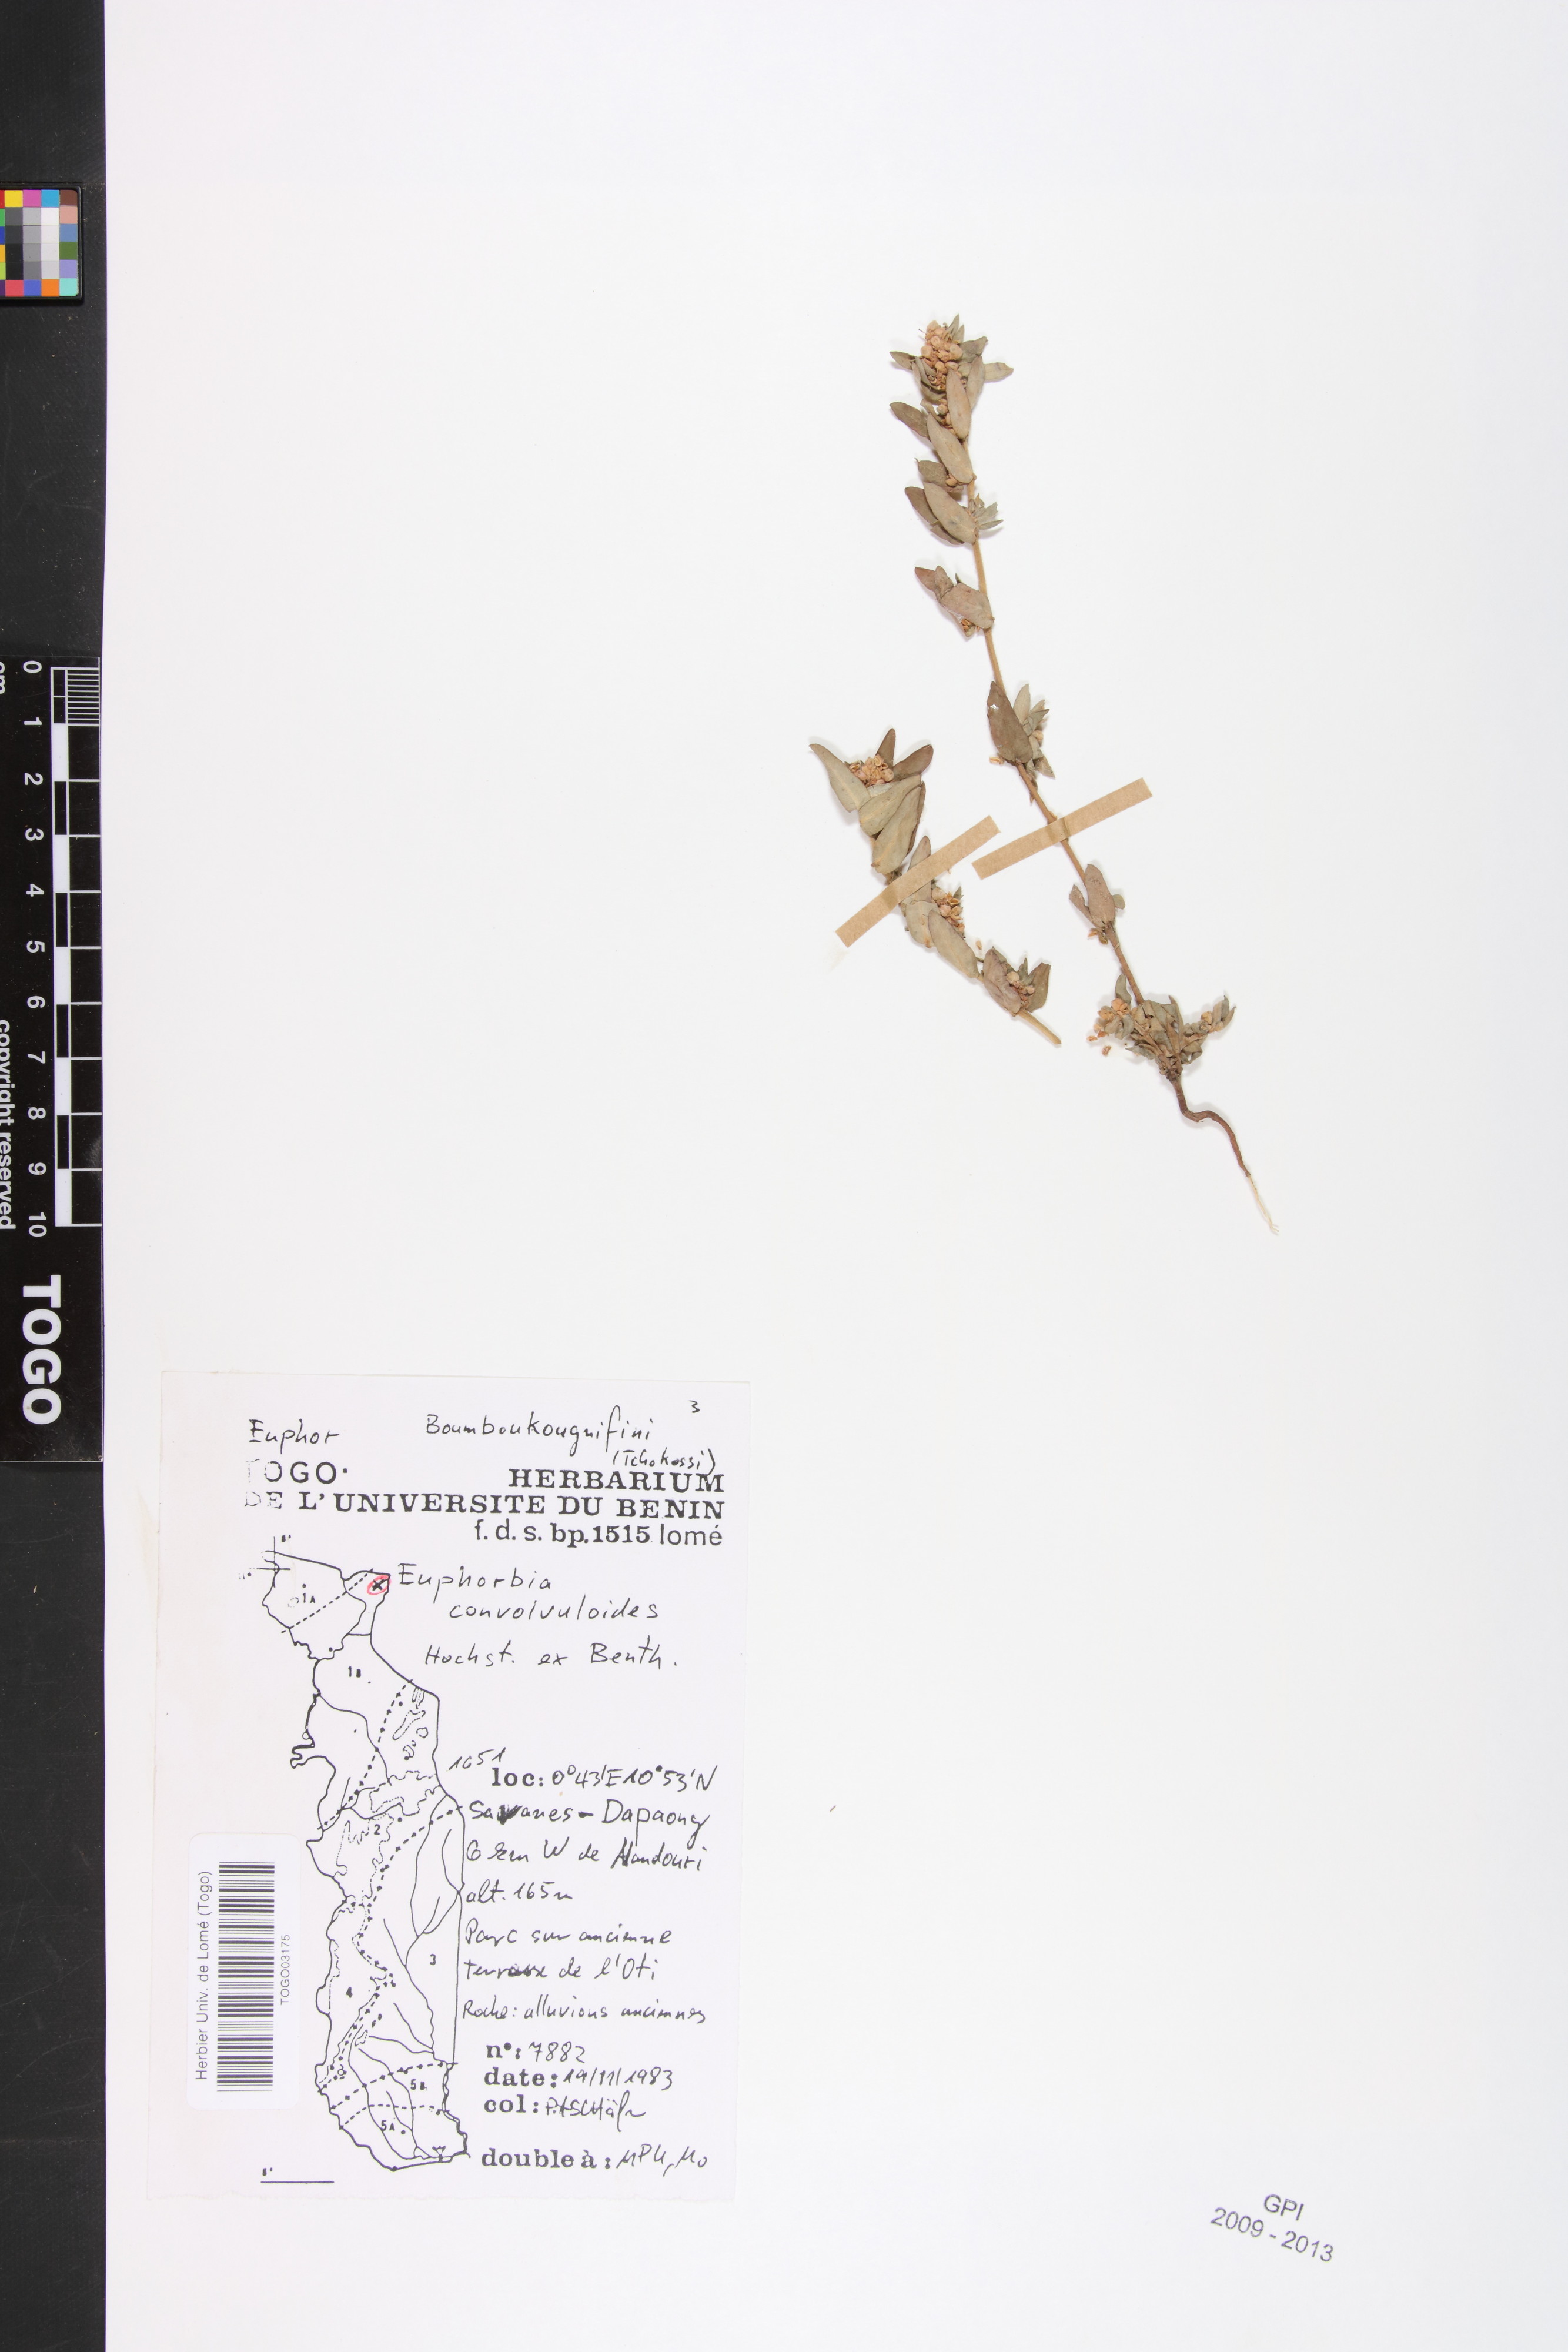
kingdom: Plantae
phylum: Tracheophyta
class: Magnoliopsida
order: Malpighiales
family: Euphorbiaceae
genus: Euphorbia
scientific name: Euphorbia convolvuloides
